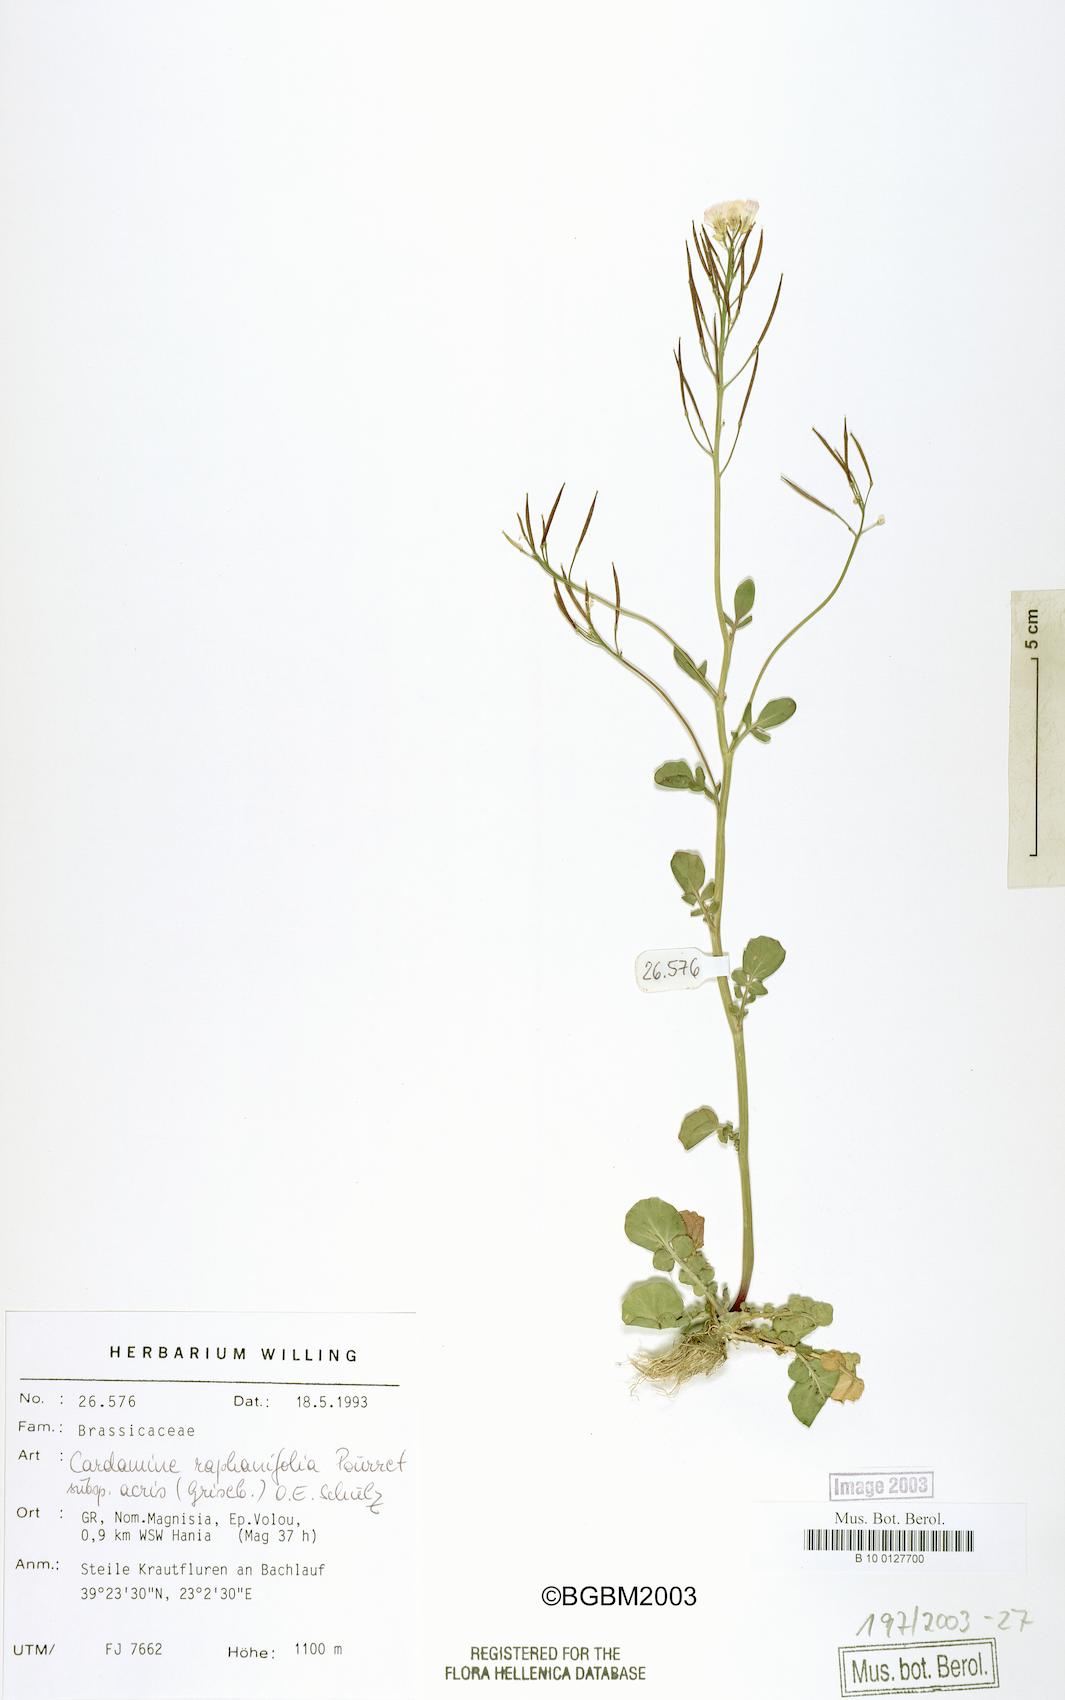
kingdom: Plantae
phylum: Tracheophyta
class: Magnoliopsida
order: Brassicales
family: Brassicaceae
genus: Cardamine
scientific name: Cardamine raphanifolia
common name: Greater cuckooflower
